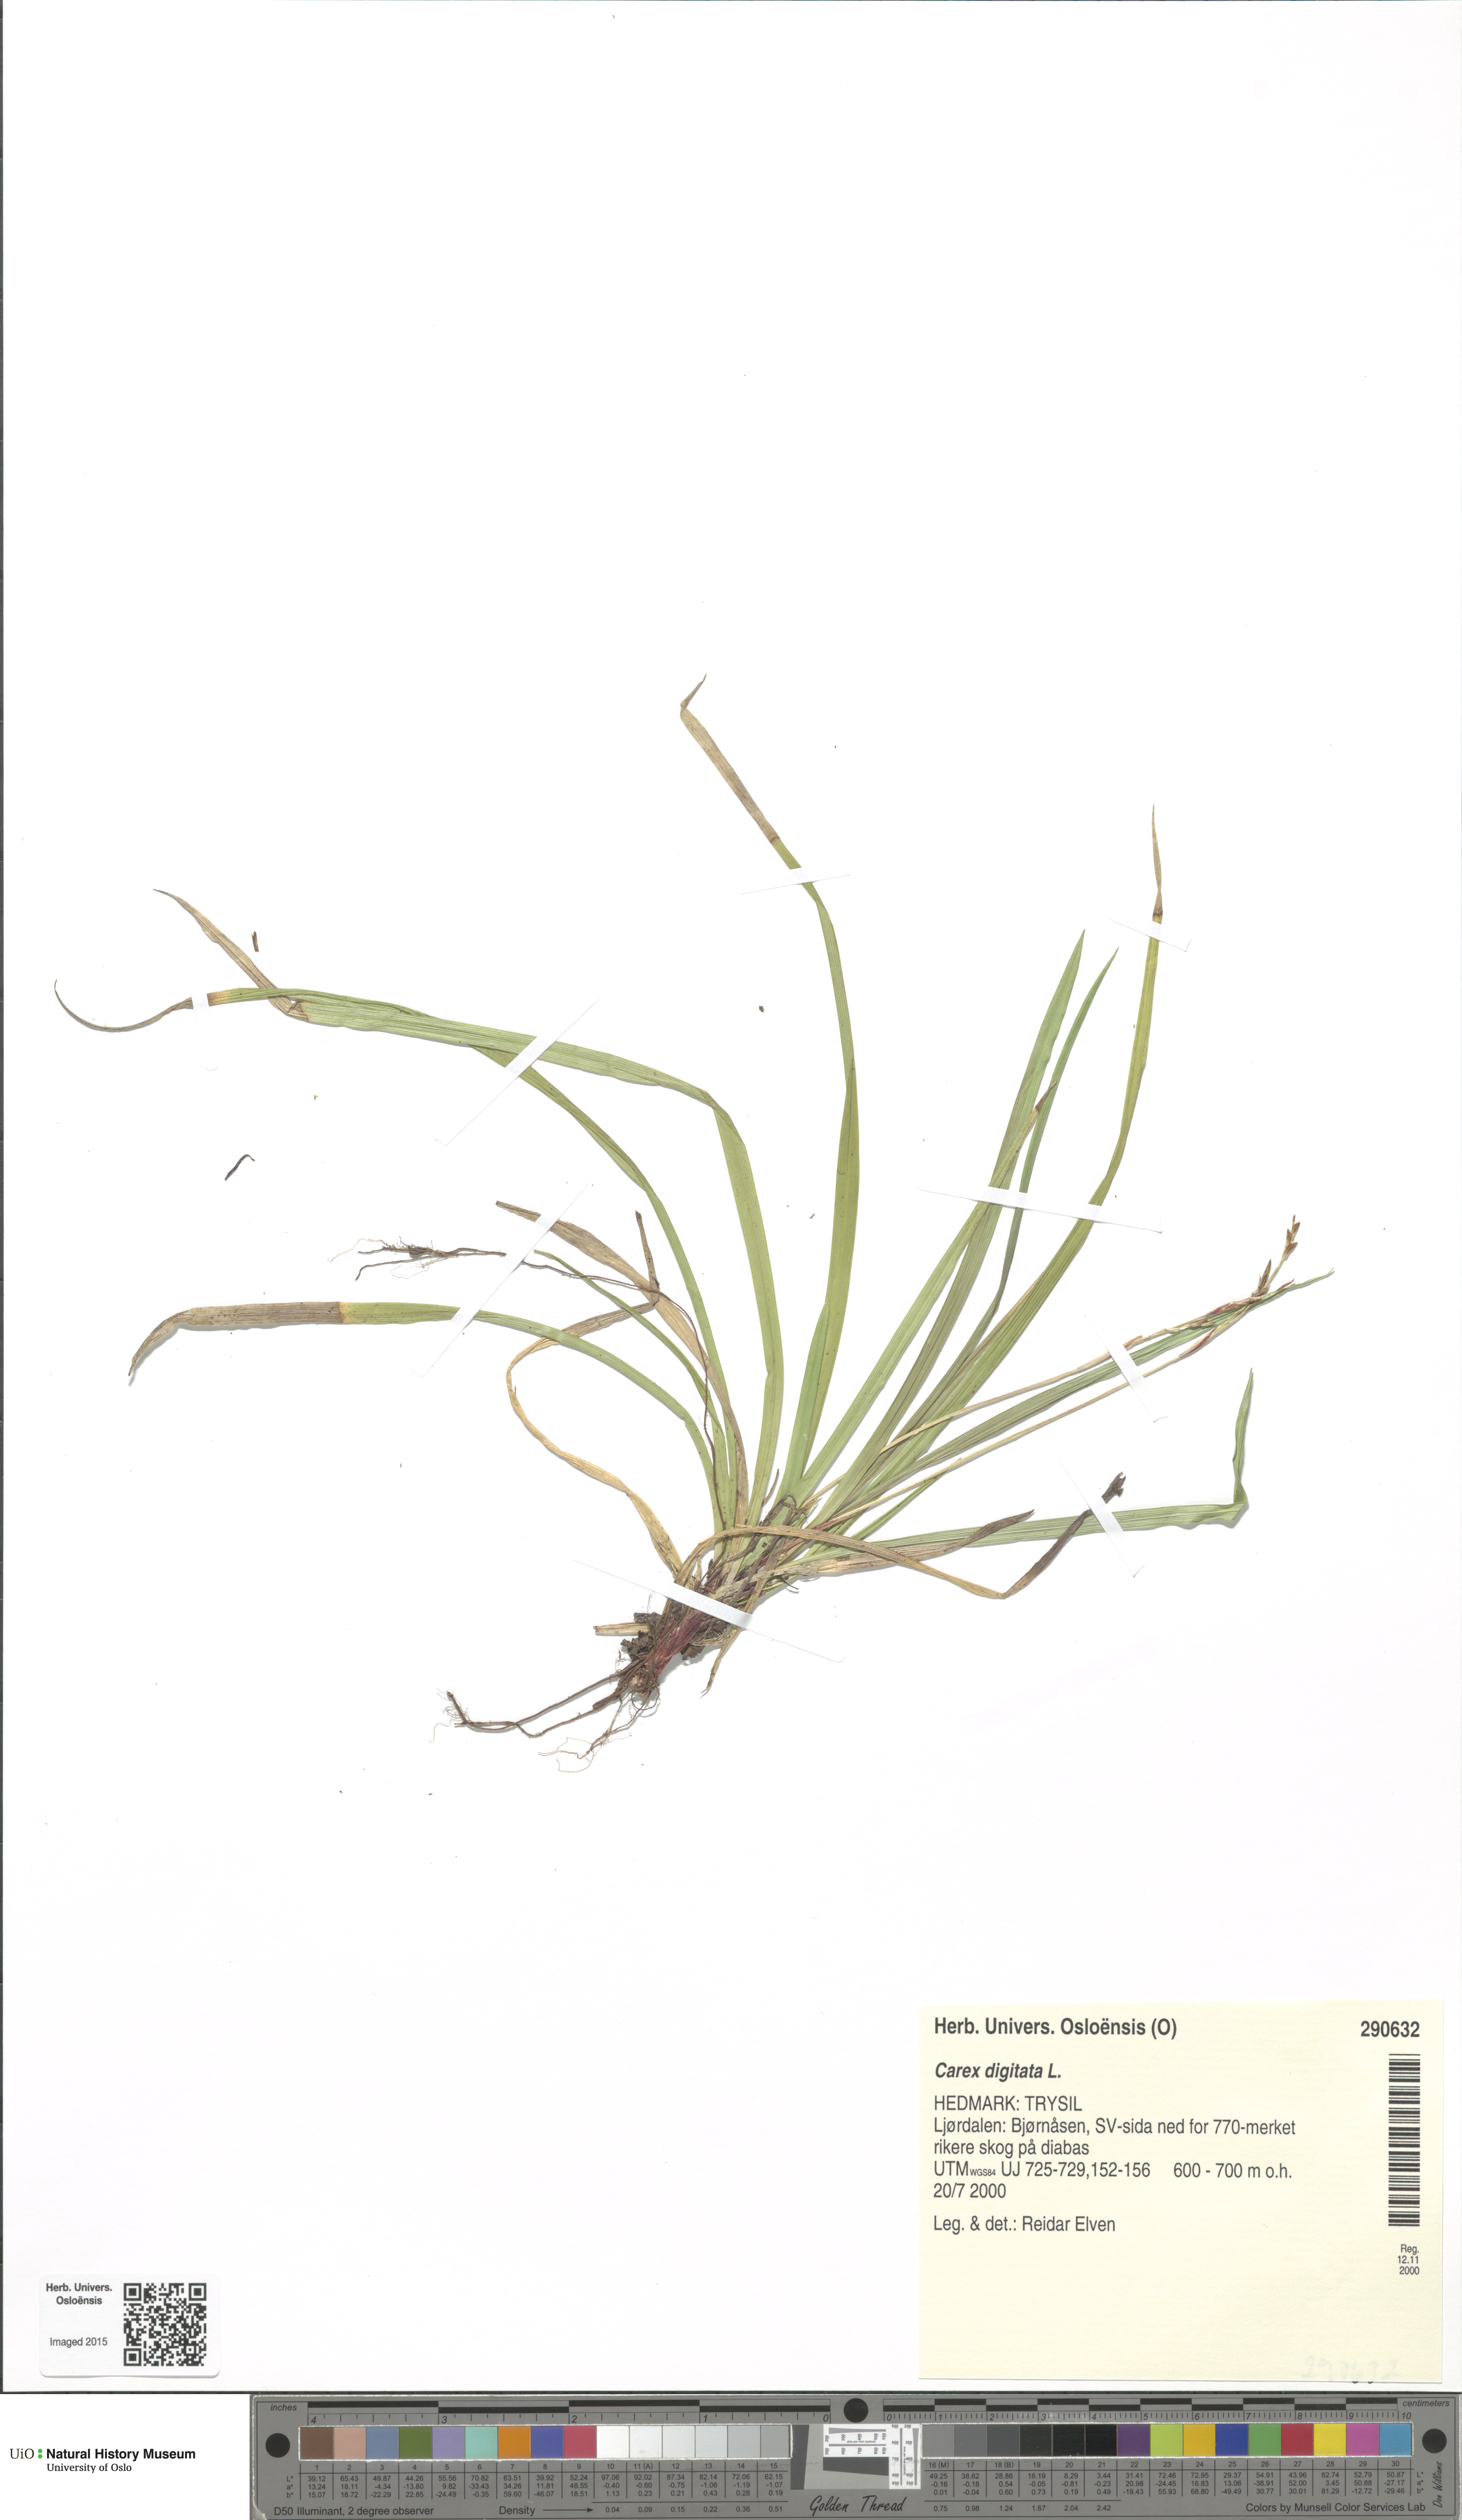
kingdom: Plantae
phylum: Tracheophyta
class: Liliopsida
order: Poales
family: Cyperaceae
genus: Carex
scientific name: Carex digitata
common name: Fingered sedge
